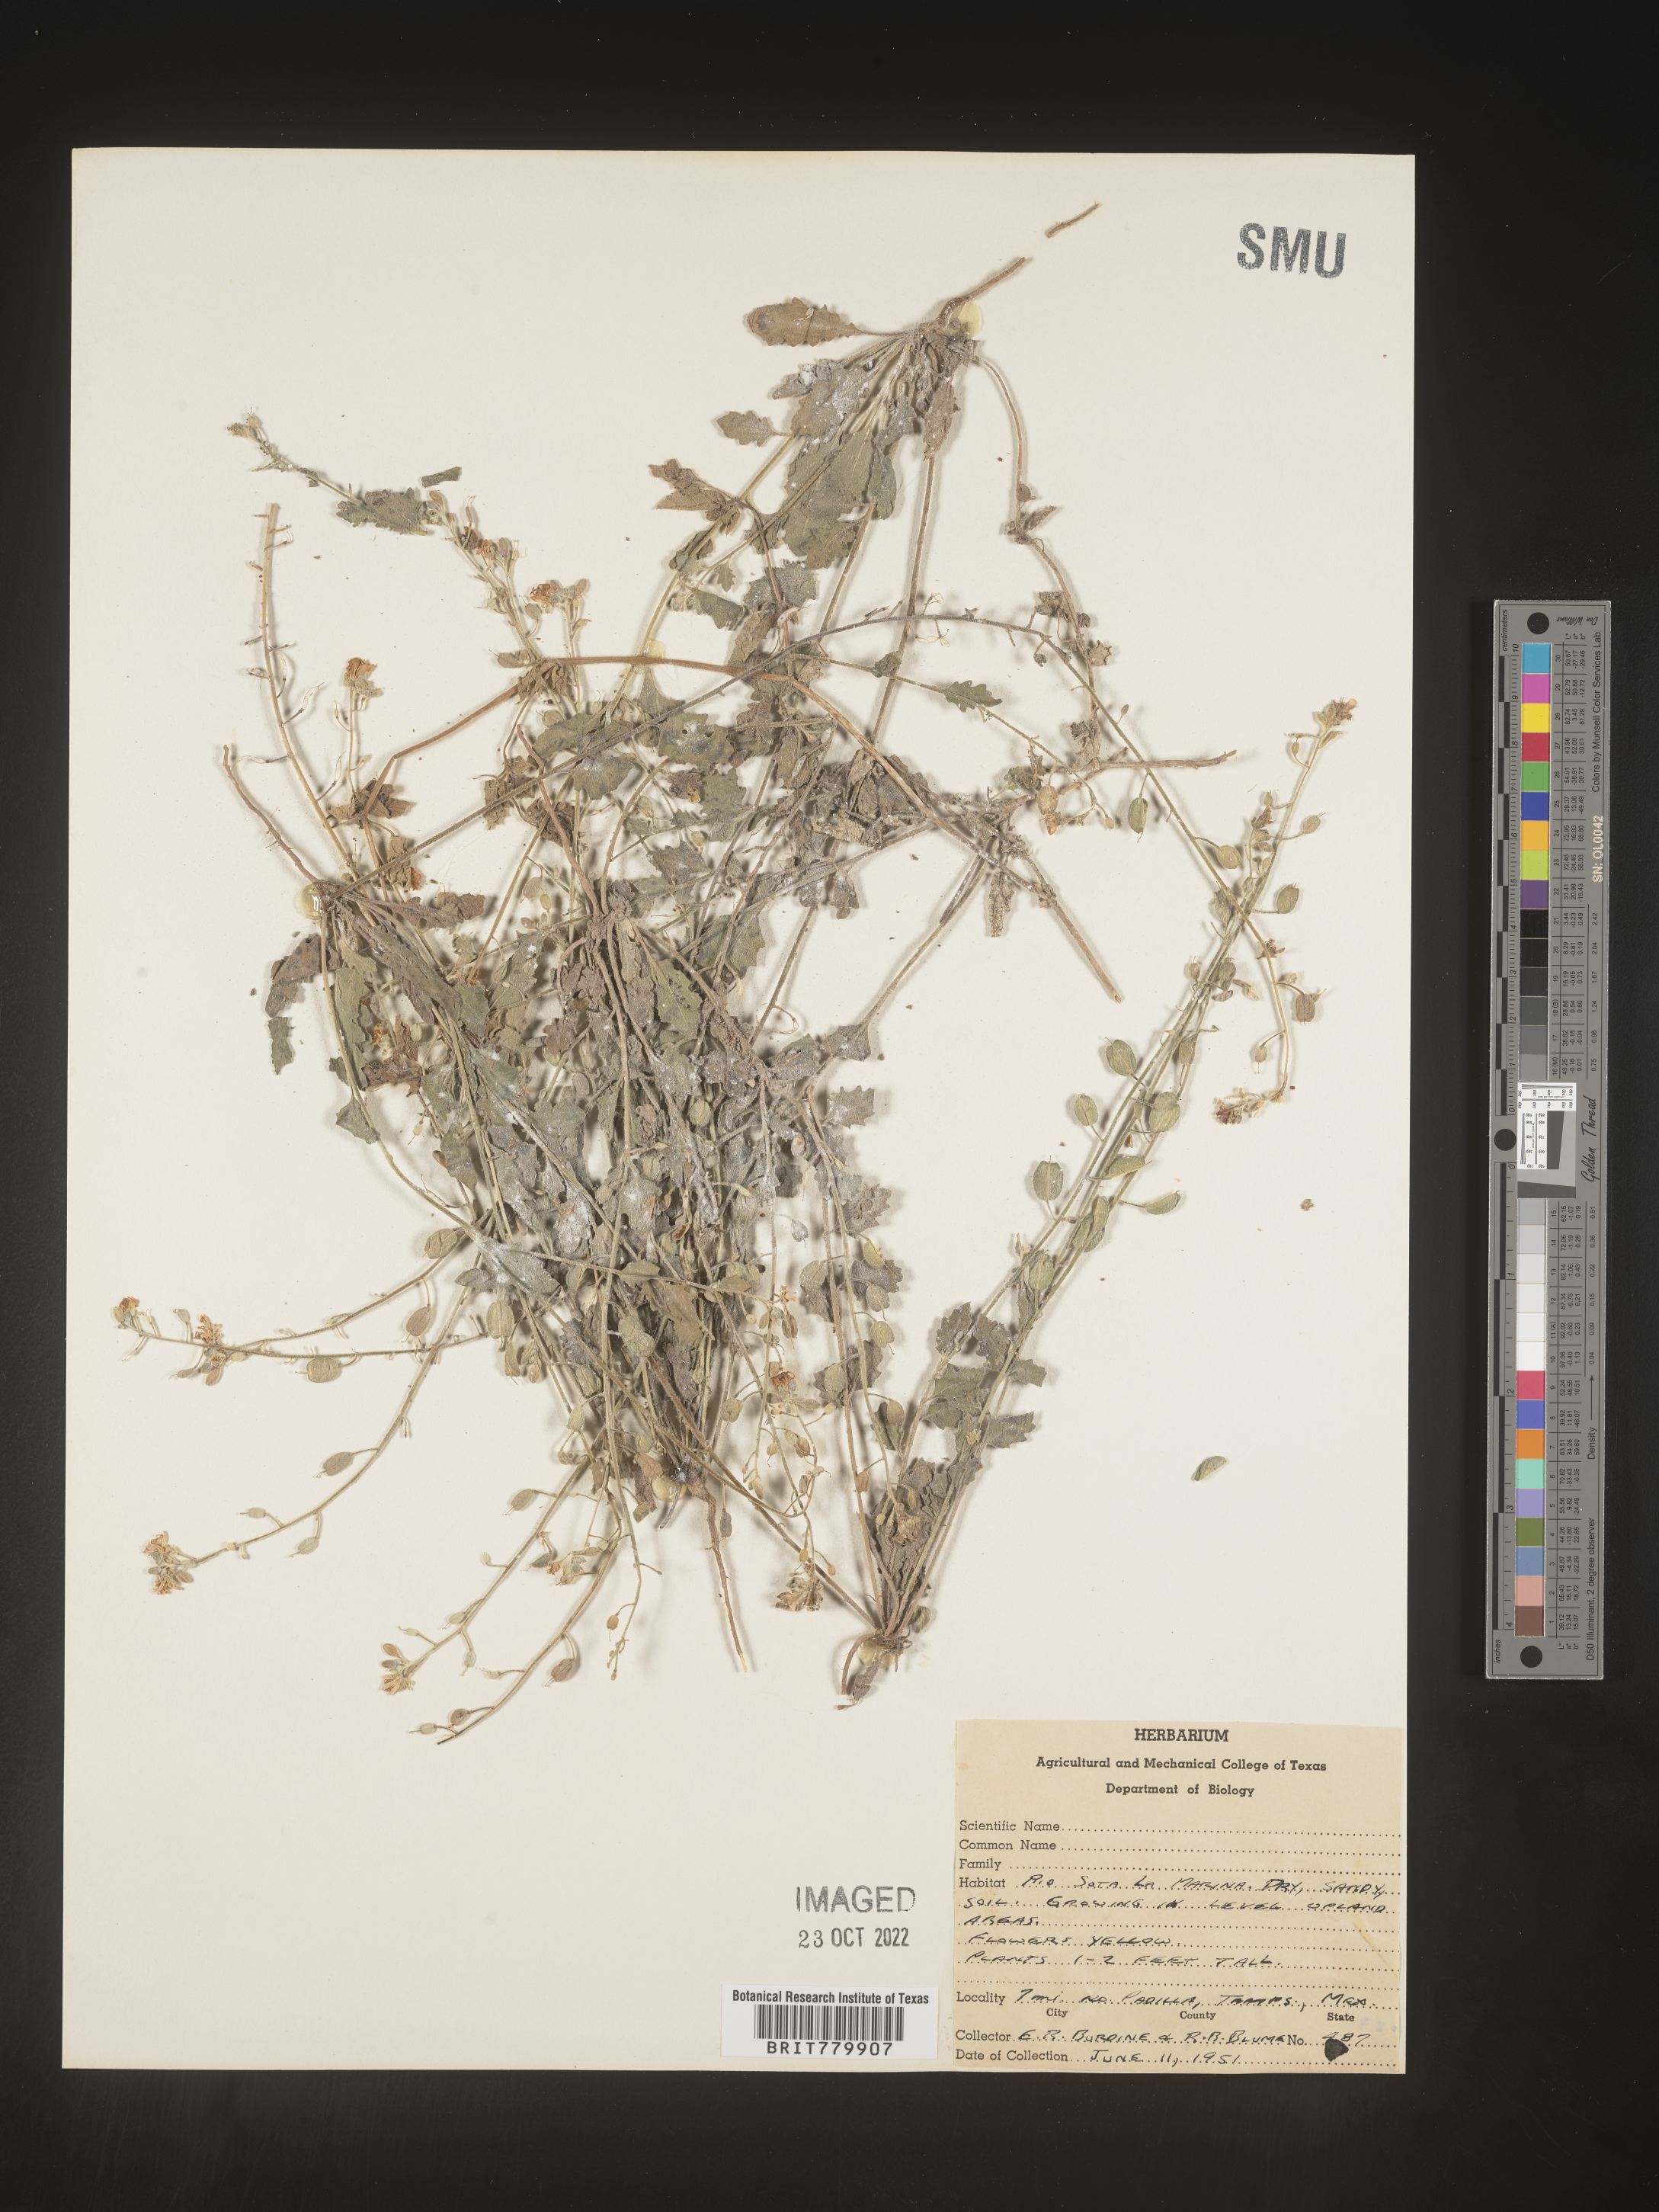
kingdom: Plantae
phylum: Tracheophyta
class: Magnoliopsida
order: Brassicales
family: Brassicaceae
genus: Thlaspi
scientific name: Thlaspi
